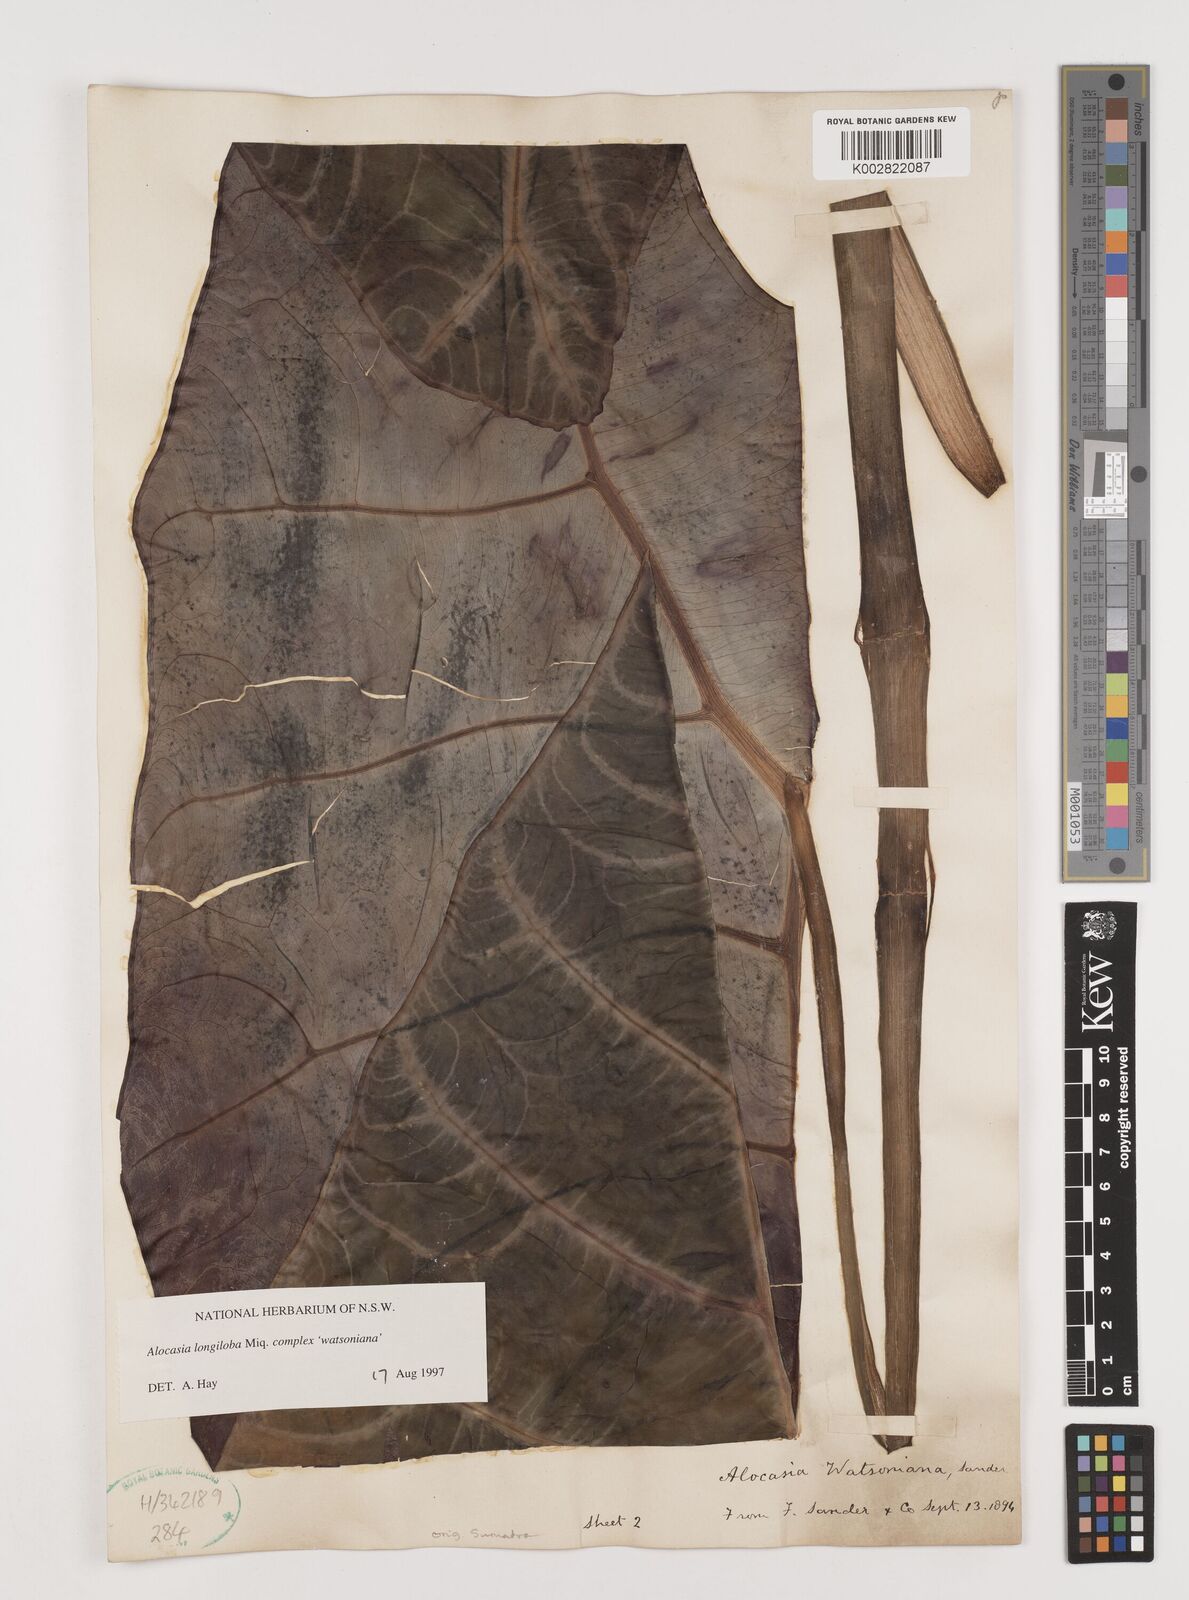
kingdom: Plantae
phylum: Tracheophyta
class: Liliopsida
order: Alismatales
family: Araceae
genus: Alocasia
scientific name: Alocasia longiloba
